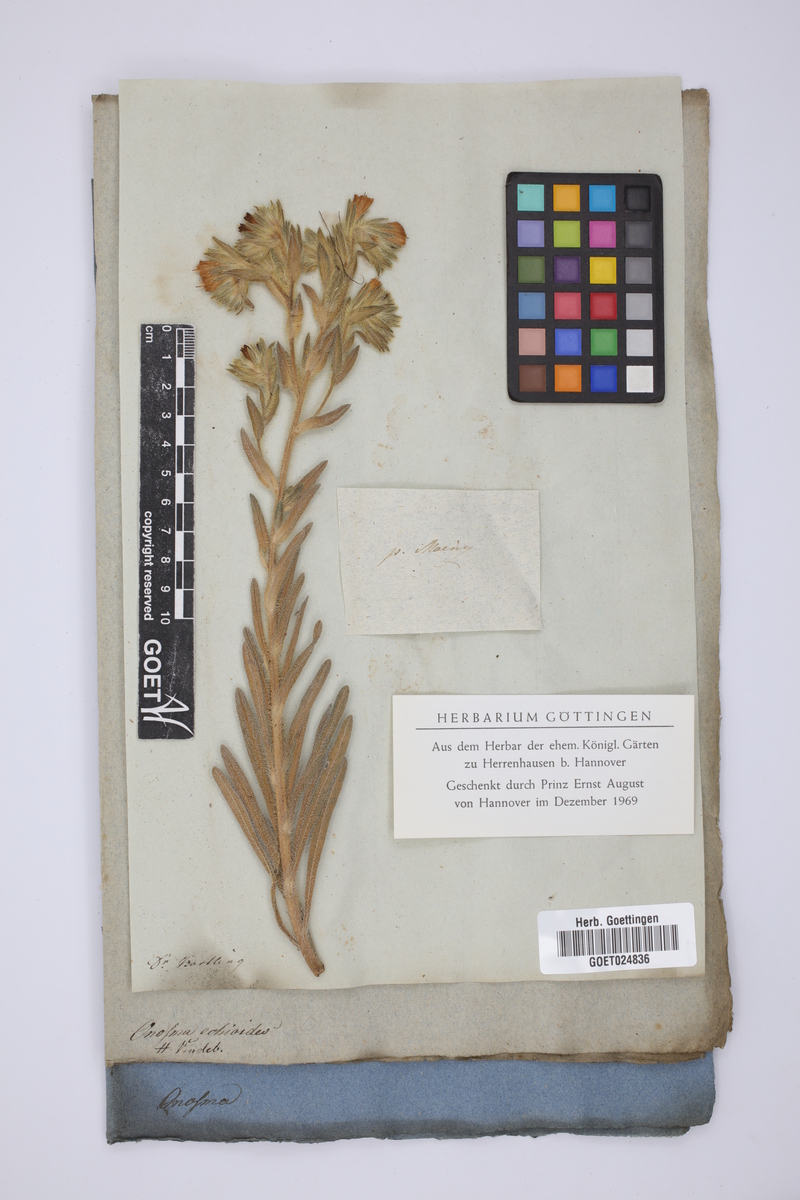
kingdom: Plantae
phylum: Tracheophyta
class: Magnoliopsida
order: Boraginales
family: Boraginaceae
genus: Onosma
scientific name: Onosma echioides
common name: Goldendrop
